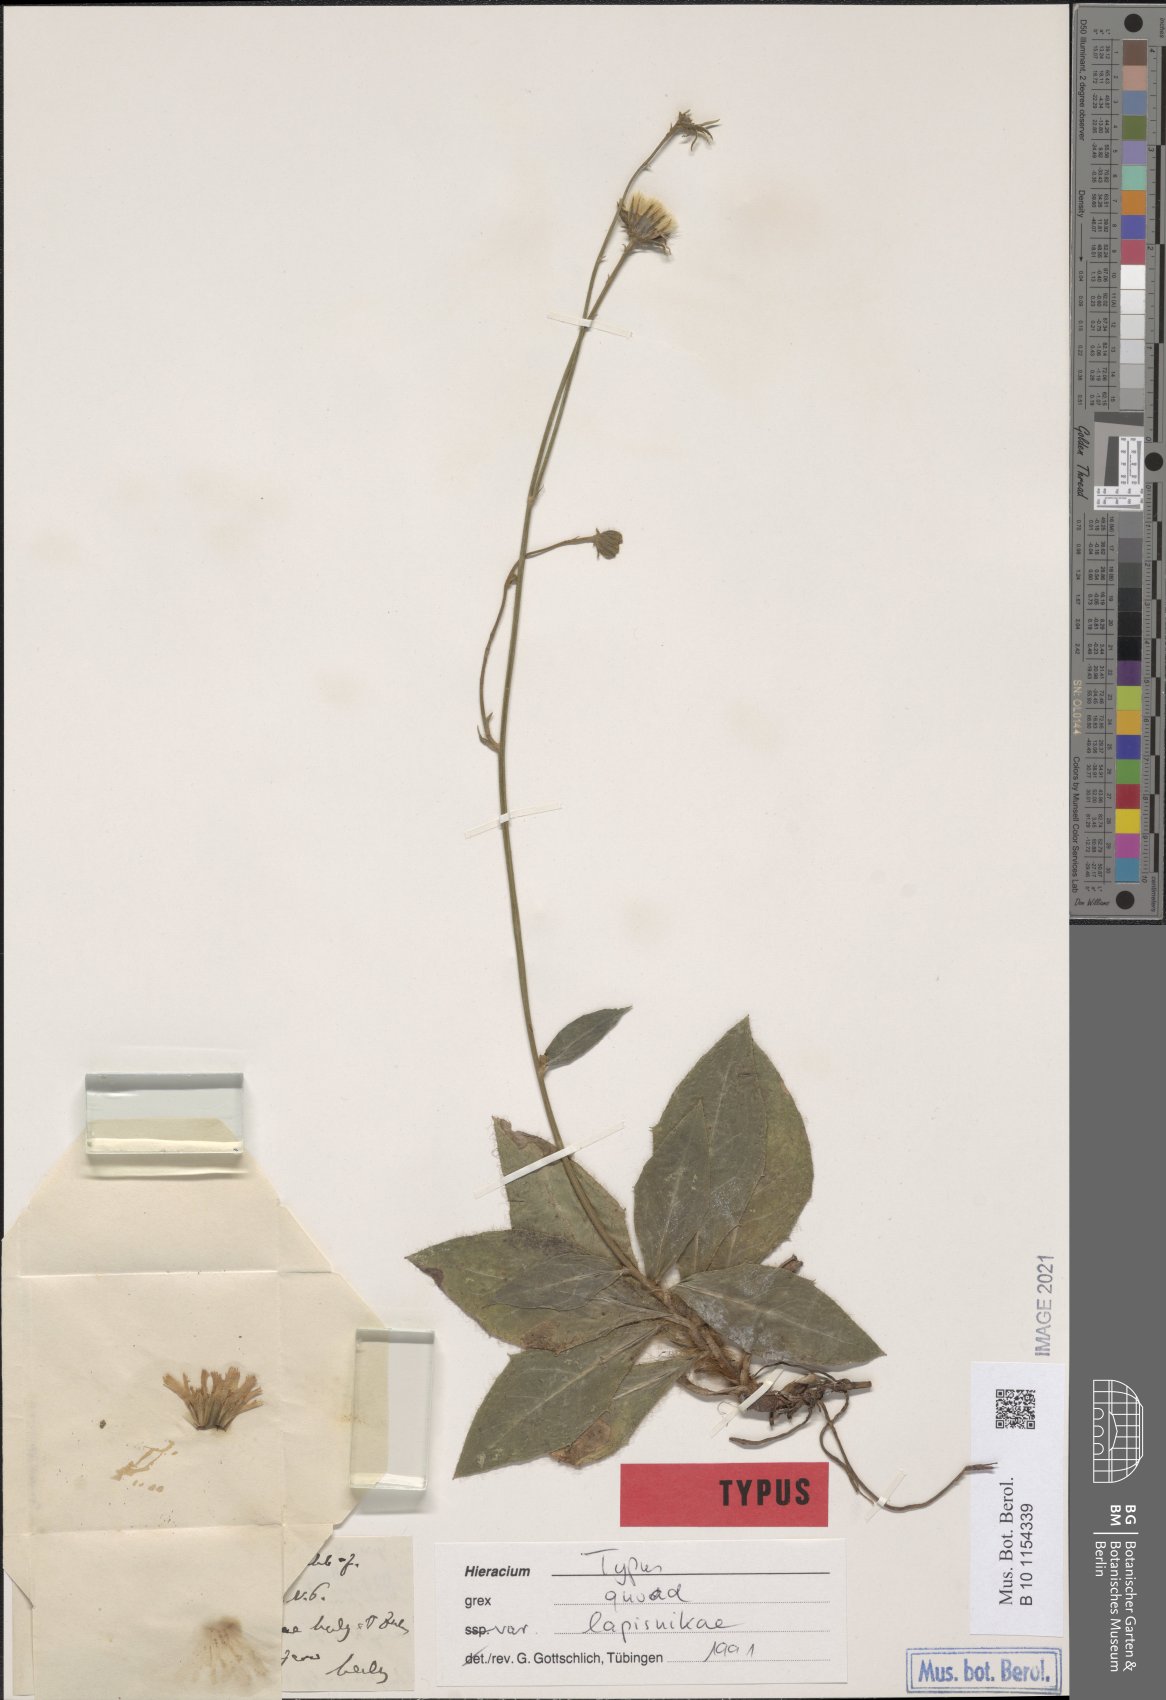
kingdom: Plantae
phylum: Tracheophyta
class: Magnoliopsida
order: Asterales
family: Asteraceae
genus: Hieracium
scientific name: Hieracium
